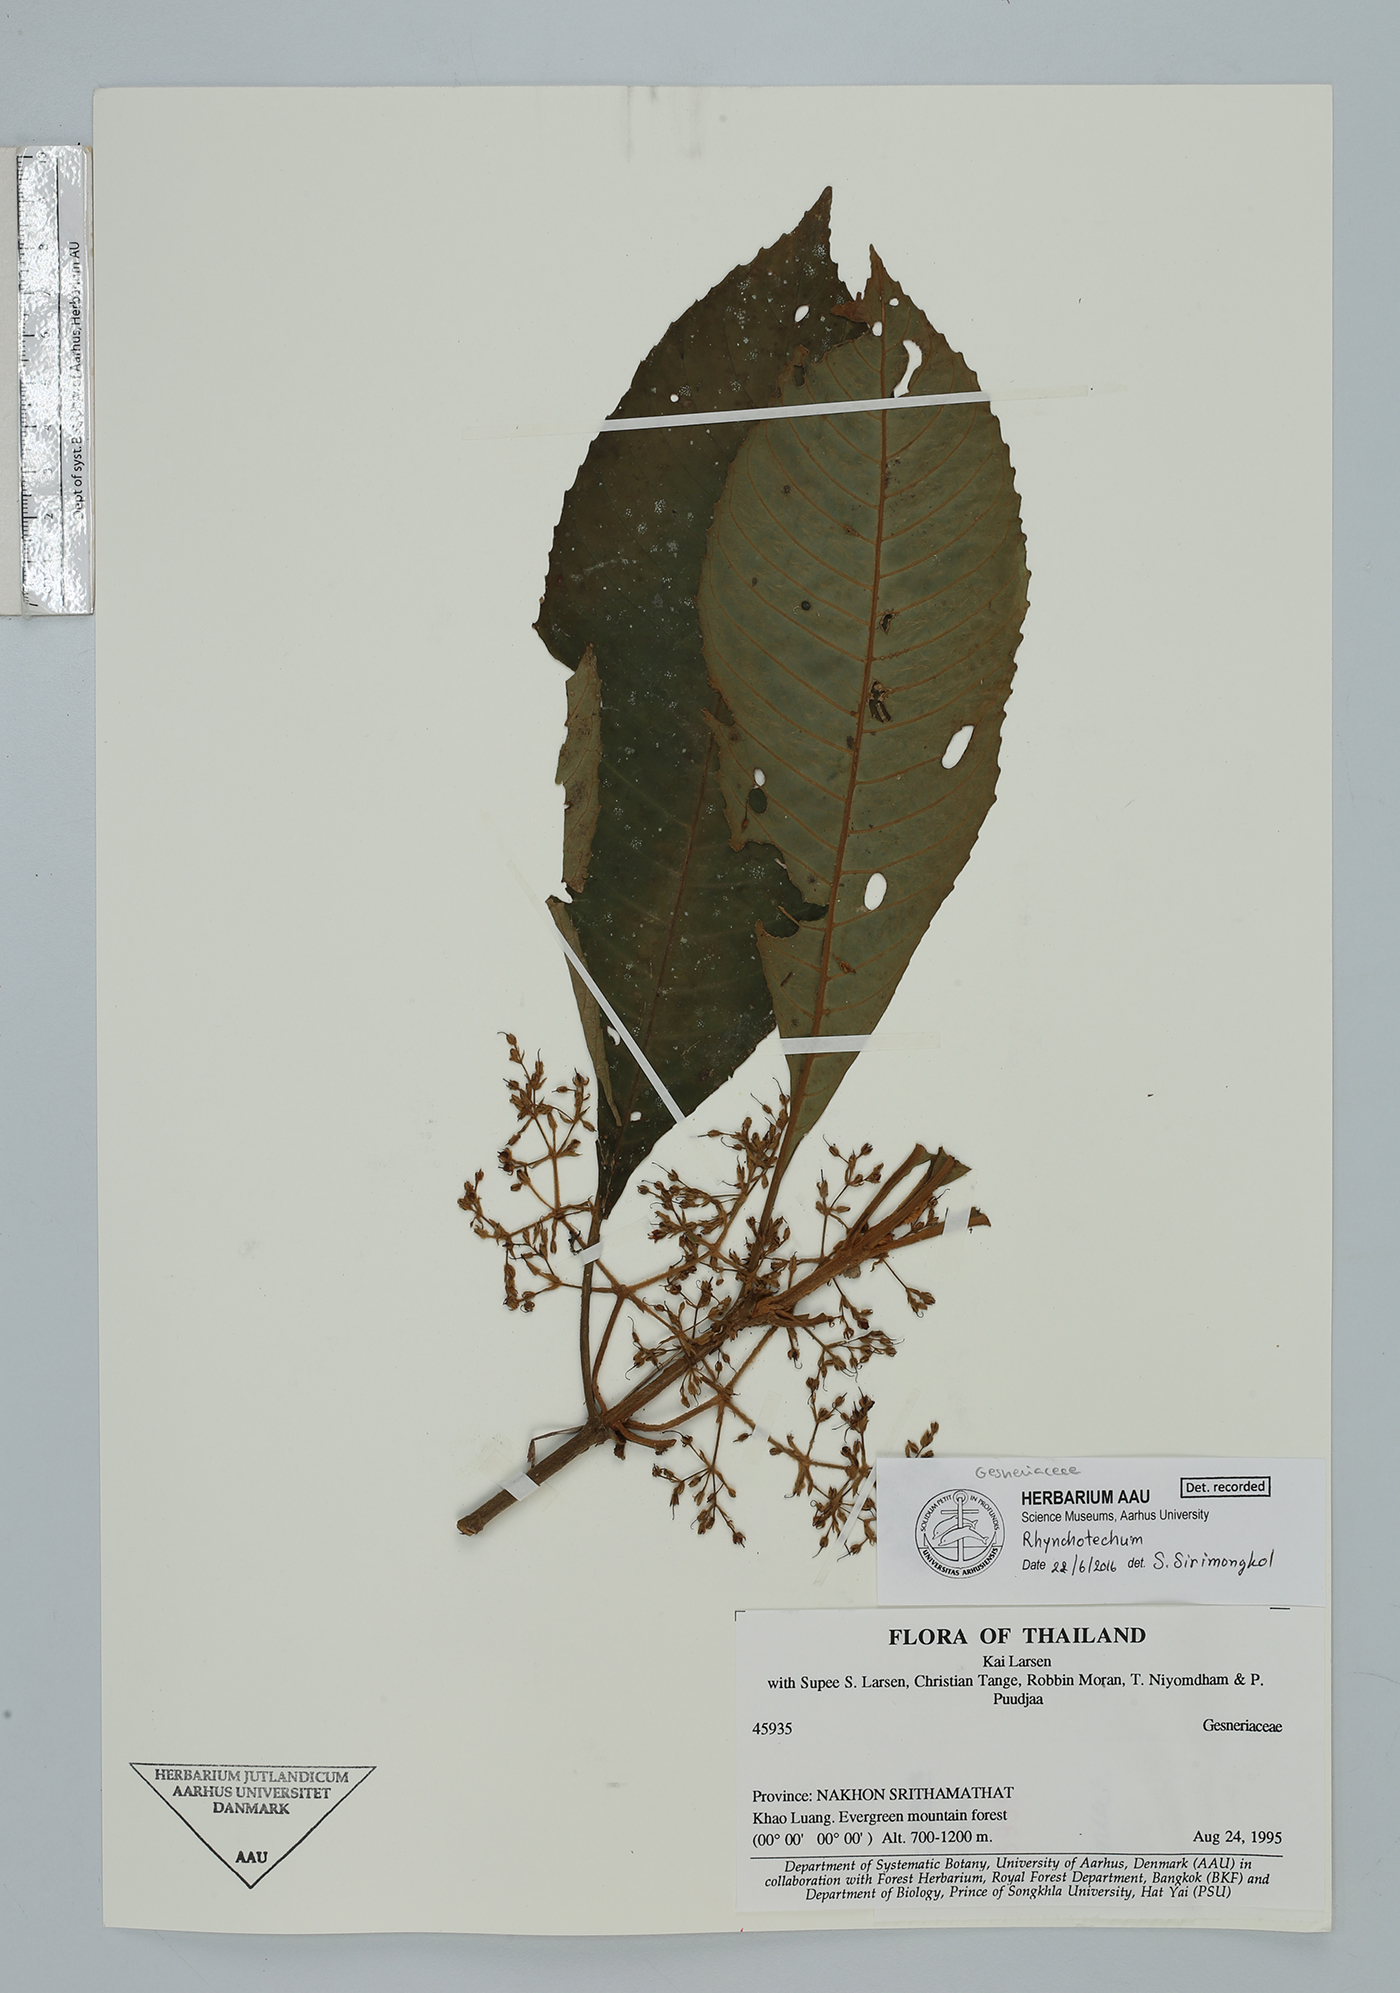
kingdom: Plantae
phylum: Tracheophyta
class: Magnoliopsida
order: Lamiales
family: Gesneriaceae
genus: Rhynchotechum
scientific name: Rhynchotechum
